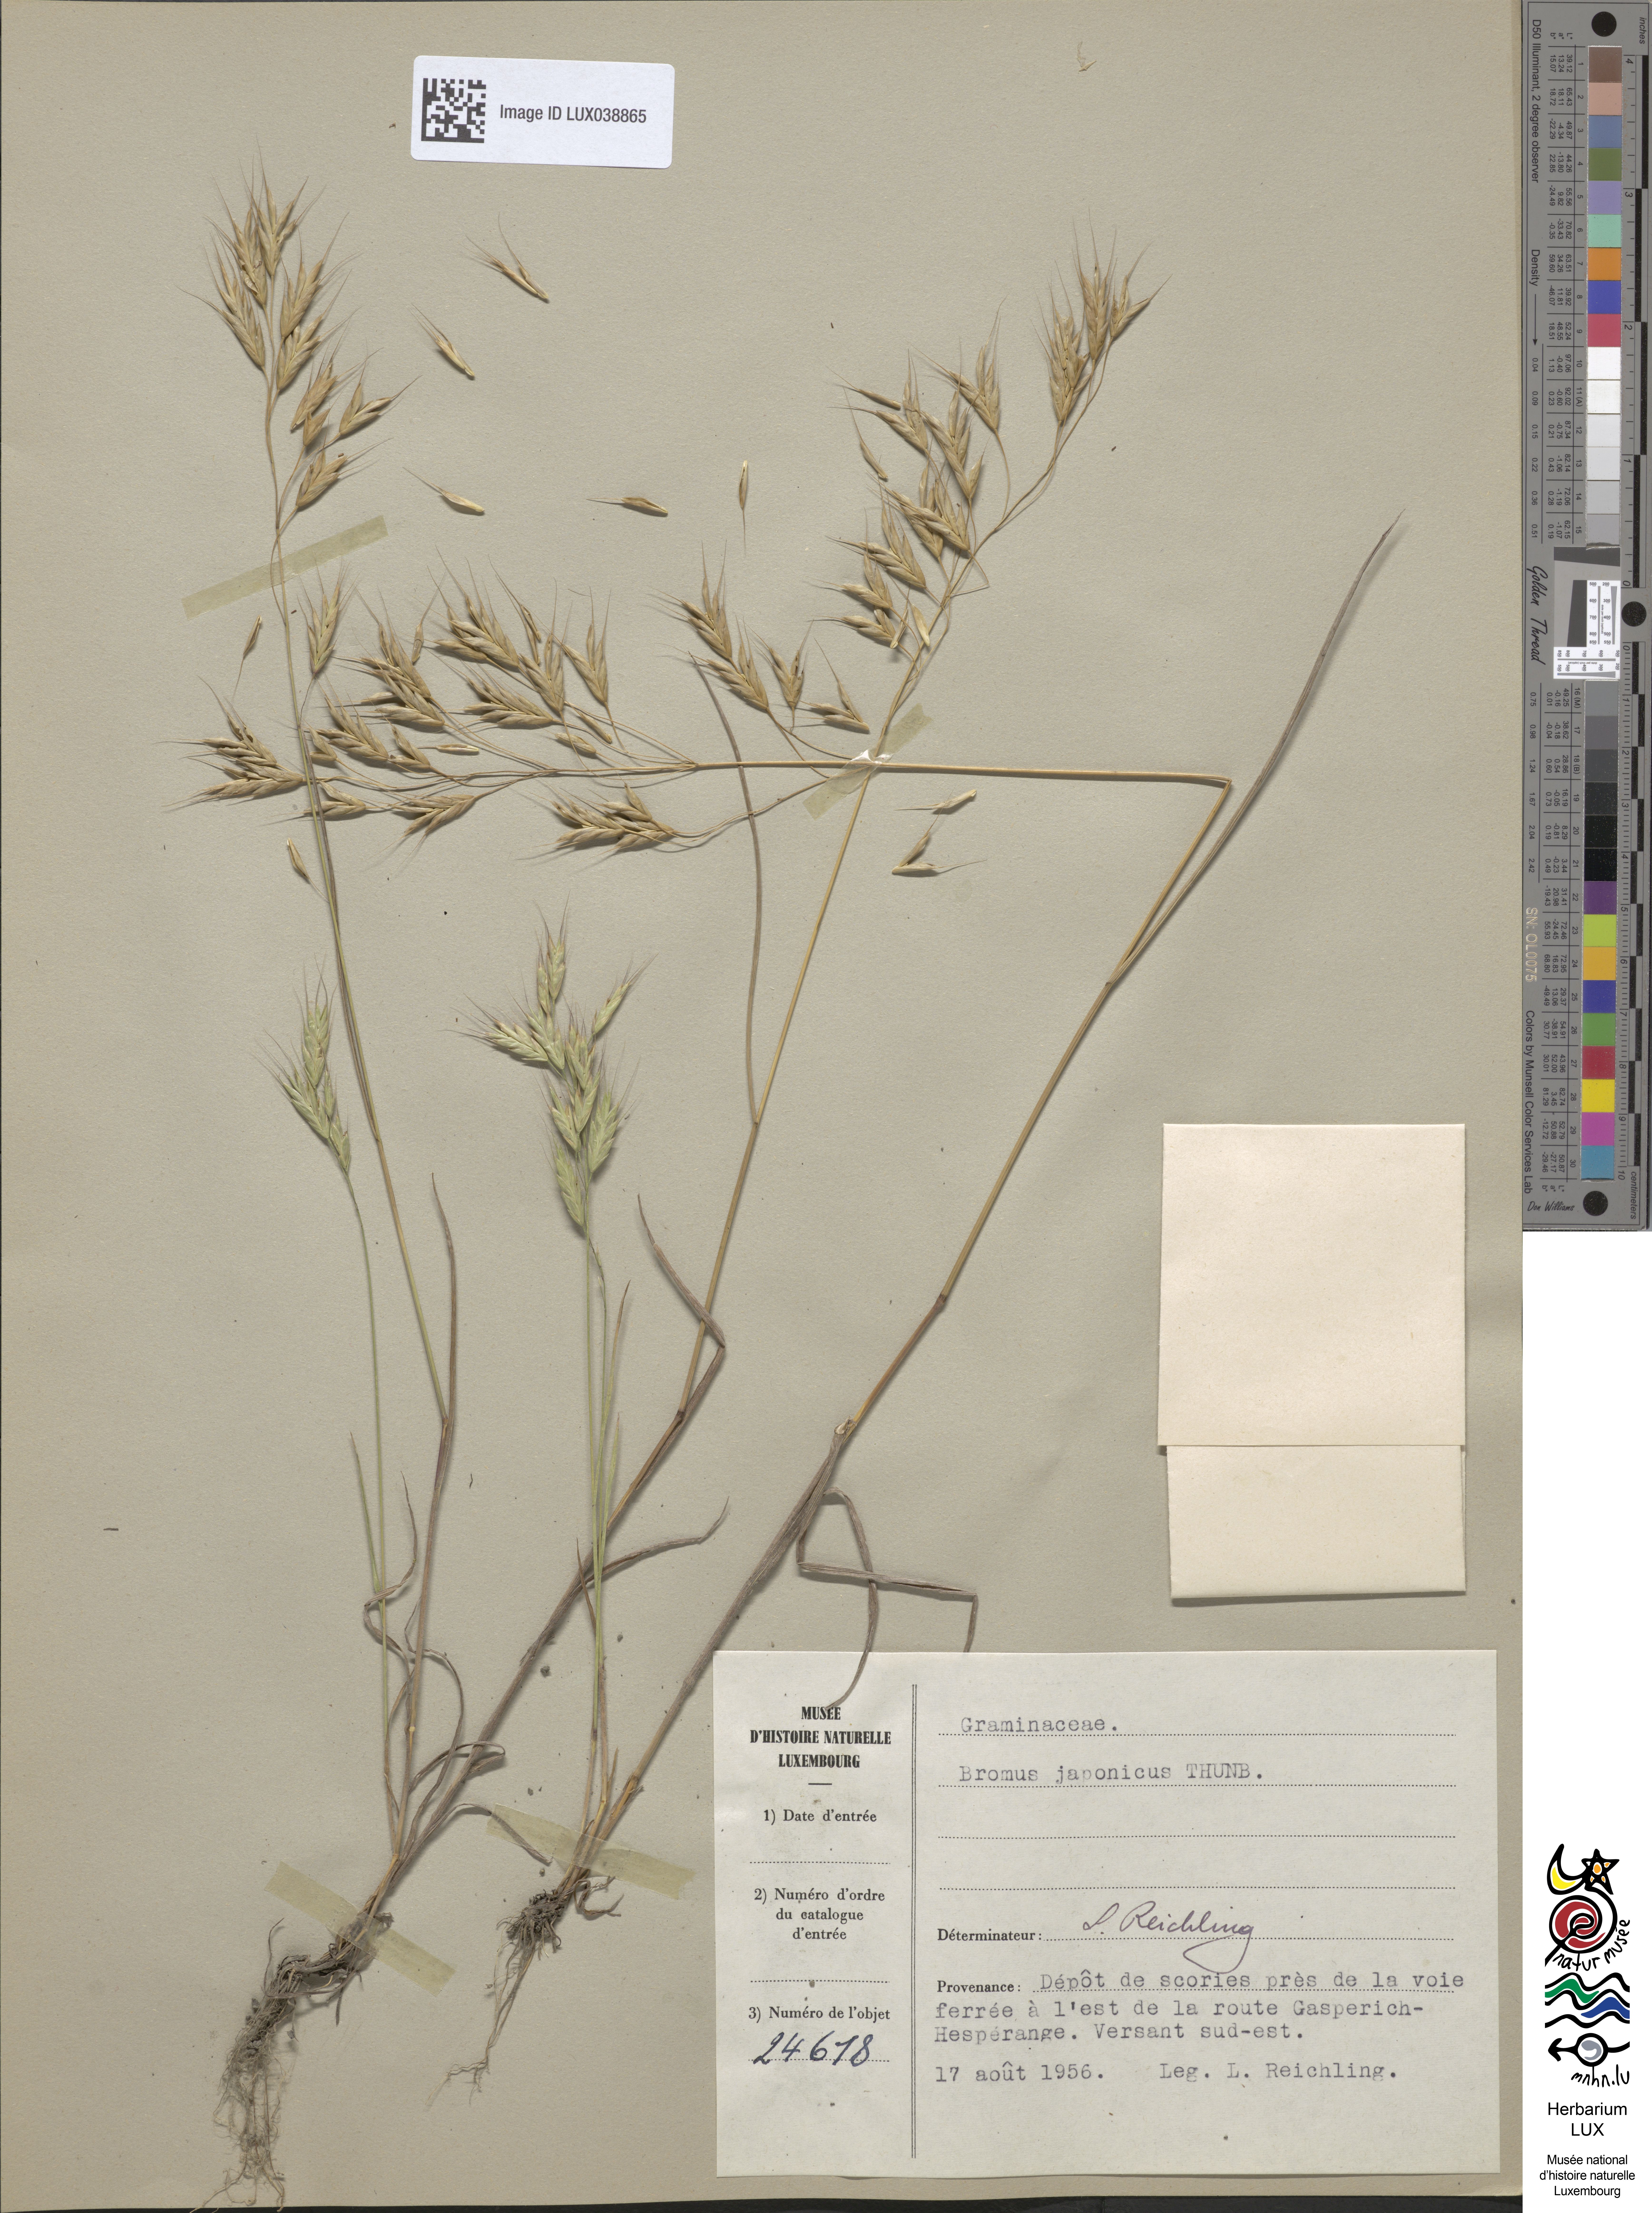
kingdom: Plantae
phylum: Tracheophyta
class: Liliopsida
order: Poales
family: Poaceae
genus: Bromus
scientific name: Bromus japonicus
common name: Japanese brome
